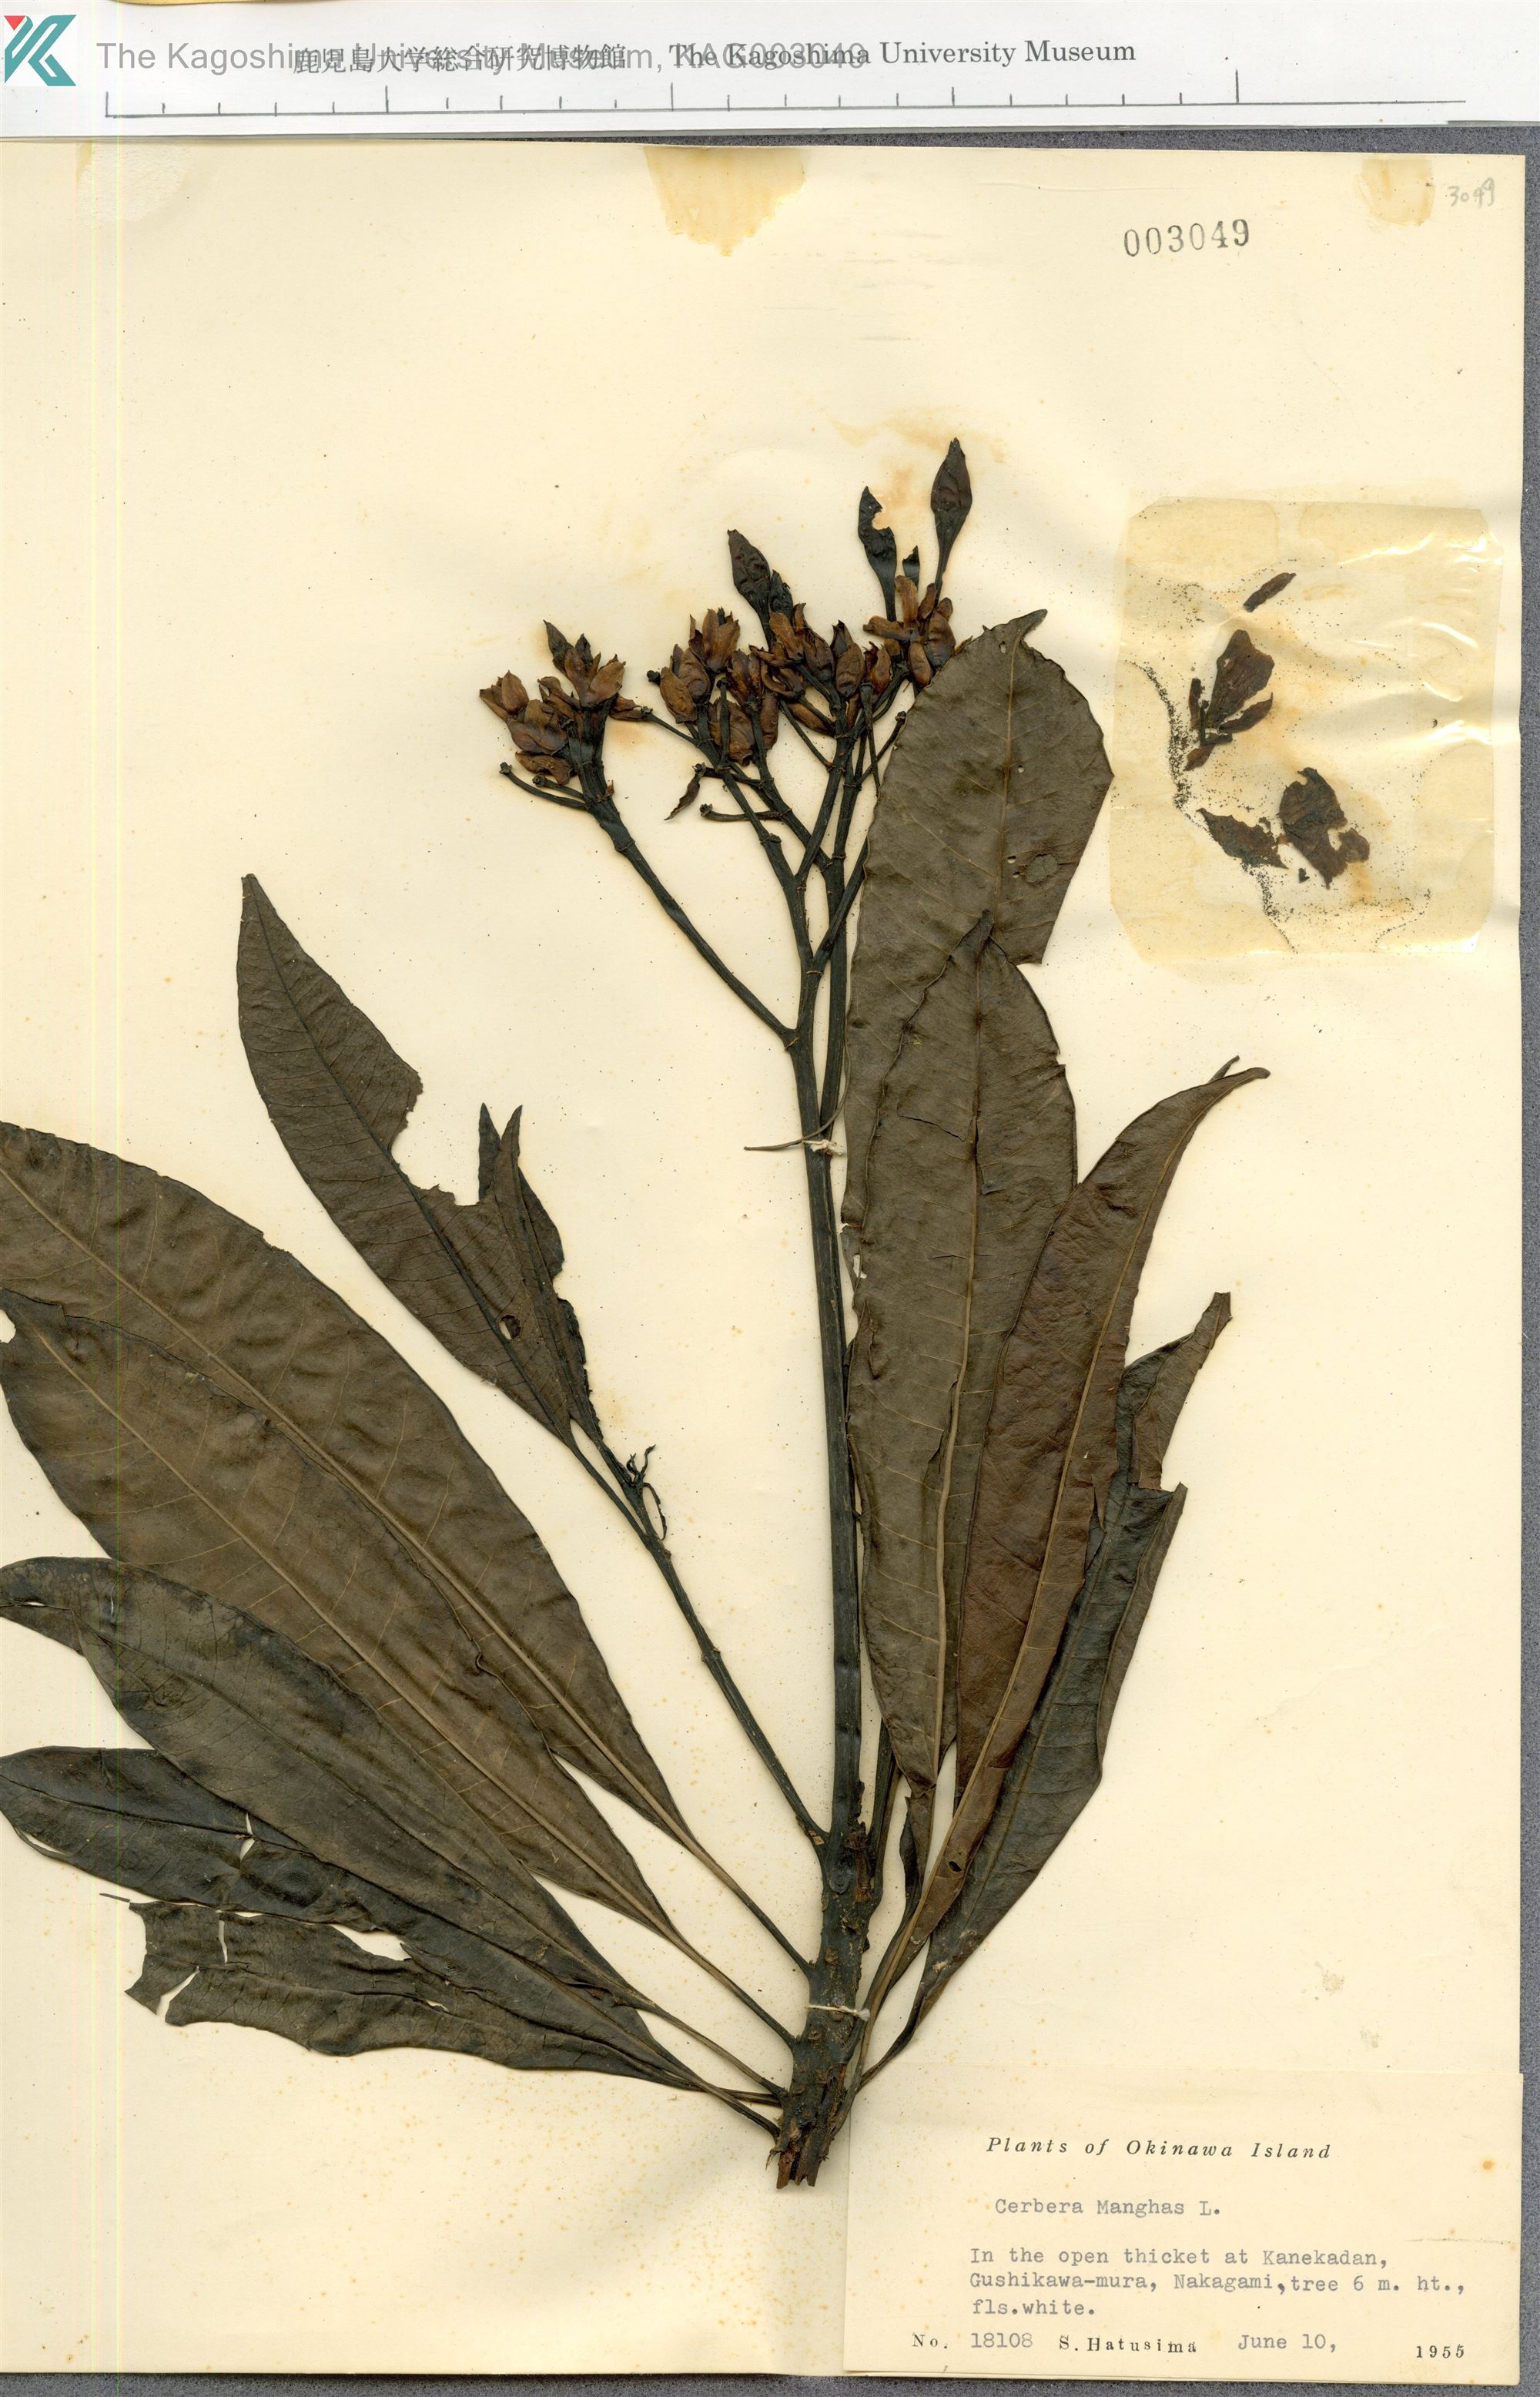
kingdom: Plantae
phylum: Tracheophyta
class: Magnoliopsida
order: Gentianales
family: Apocynaceae
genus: Cerbera
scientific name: Cerbera manghas
